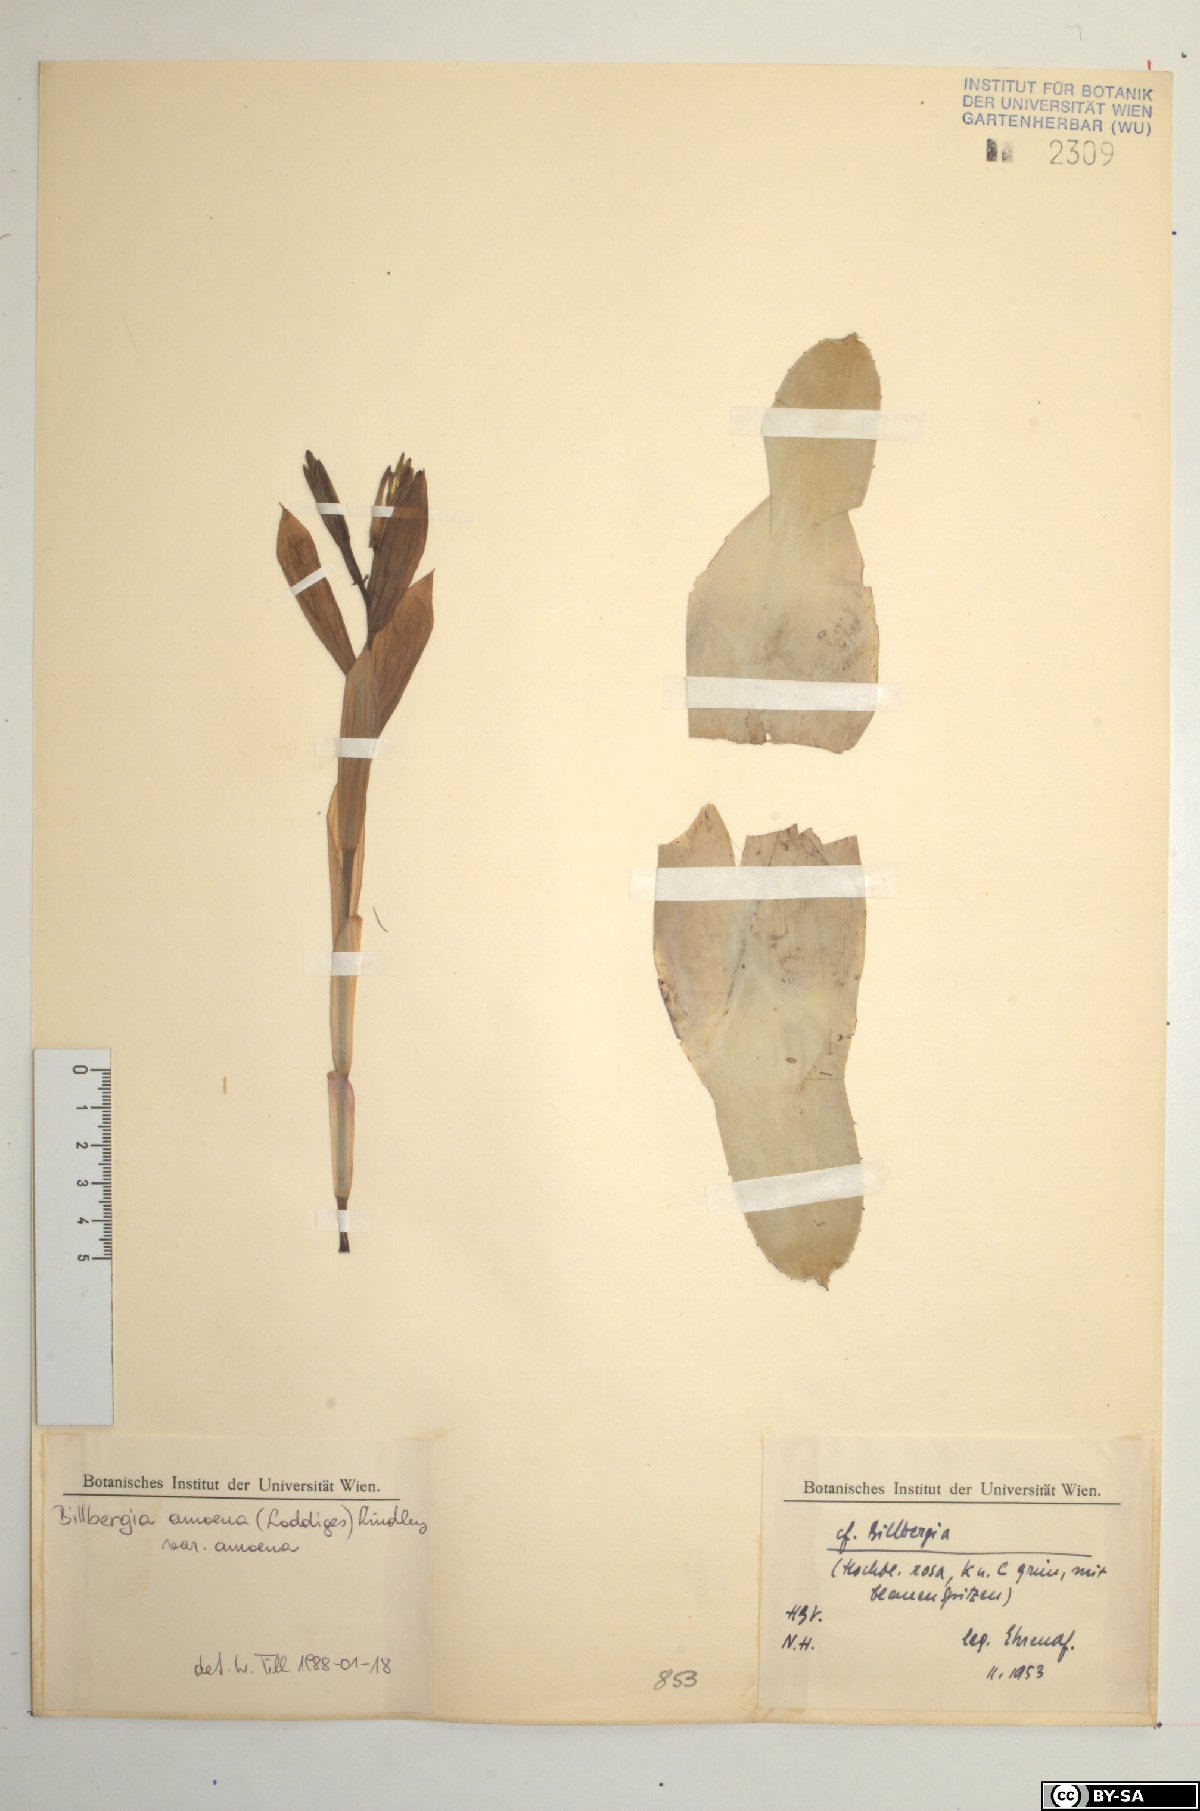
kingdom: Plantae
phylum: Tracheophyta
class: Liliopsida
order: Poales
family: Bromeliaceae
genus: Tillandsia
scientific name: Tillandsia tenuifolia
